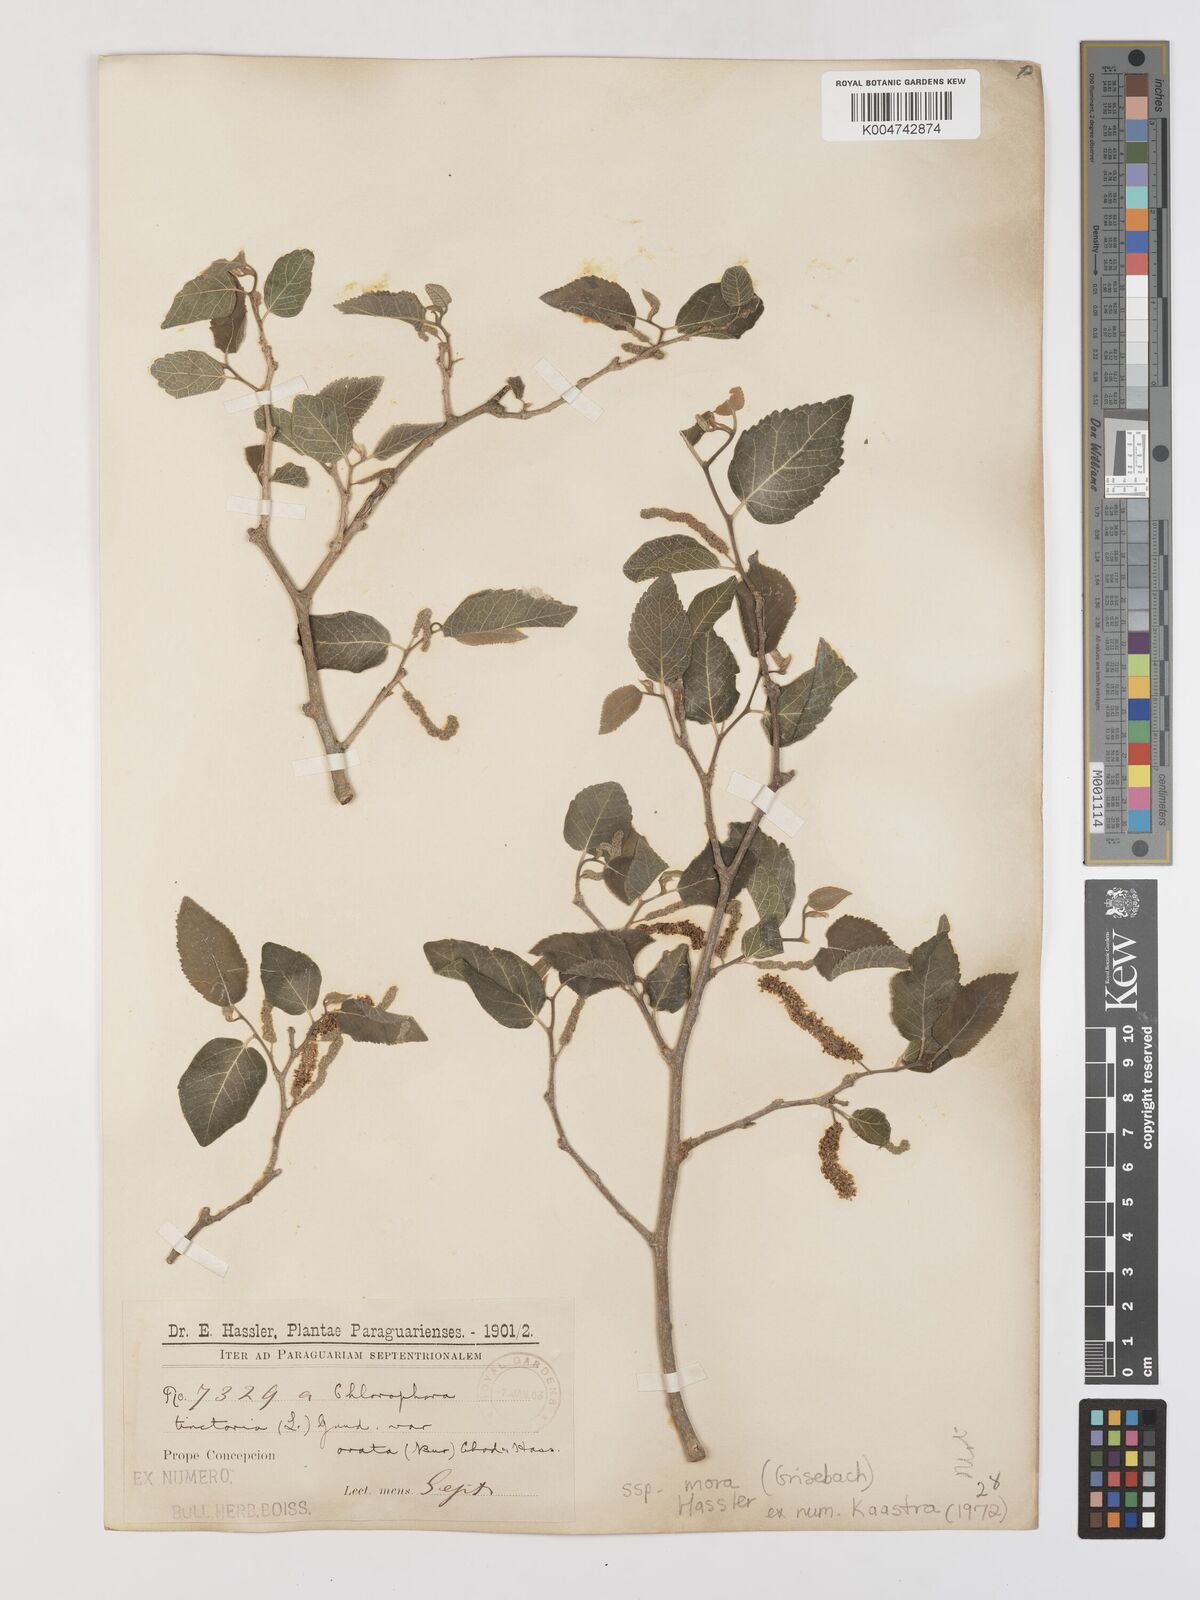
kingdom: Plantae
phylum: Tracheophyta
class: Magnoliopsida
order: Rosales
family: Moraceae
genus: Maclura
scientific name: Maclura tinctoria
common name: Old fustic
